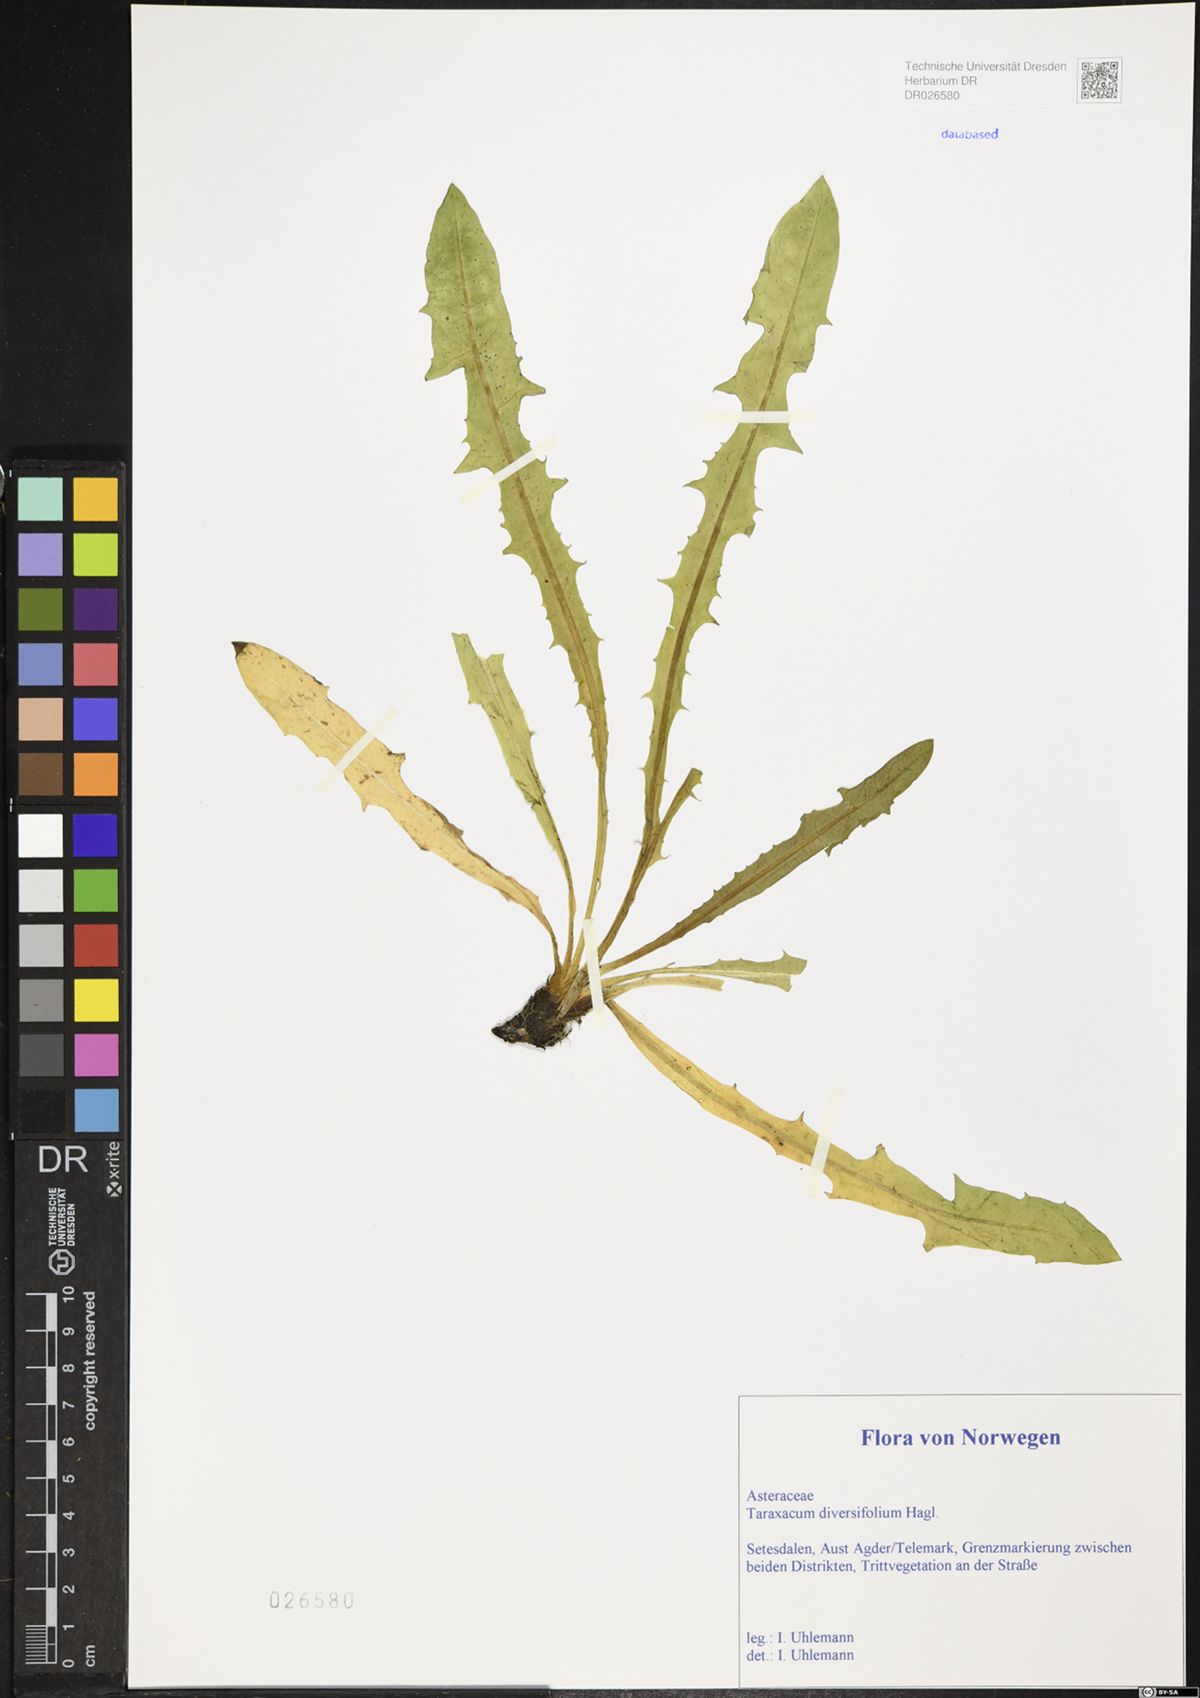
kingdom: Plantae
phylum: Tracheophyta
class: Magnoliopsida
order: Asterales
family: Asteraceae
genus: Taraxacum
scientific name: Taraxacum diversifolium
